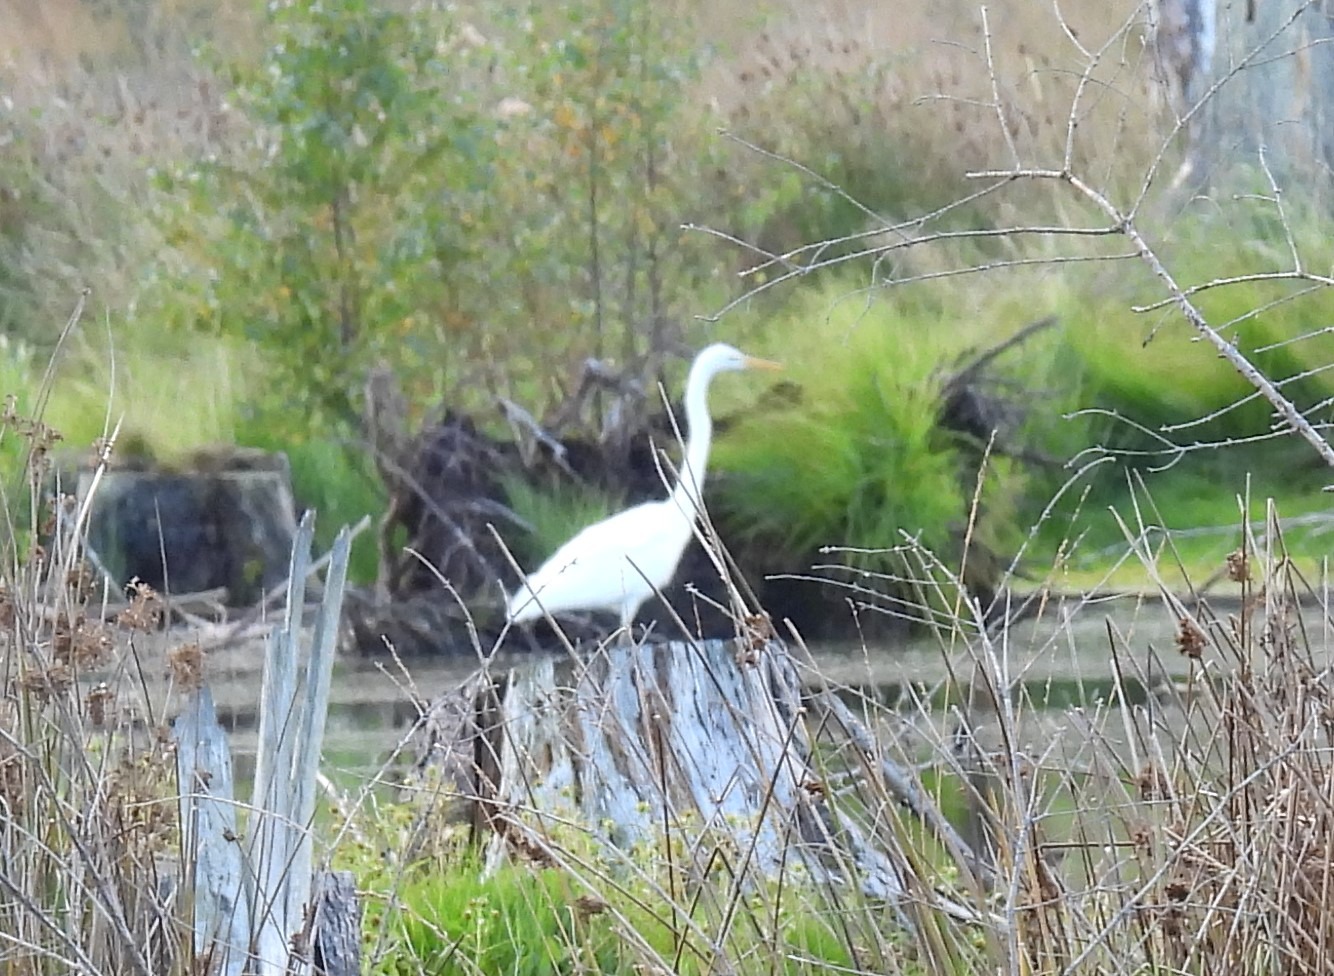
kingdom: Animalia
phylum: Chordata
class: Aves
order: Pelecaniformes
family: Ardeidae
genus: Ardea
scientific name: Ardea alba
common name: Sølvhejre
